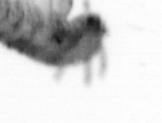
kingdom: Animalia
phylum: Annelida
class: Polychaeta
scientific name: Polychaeta
